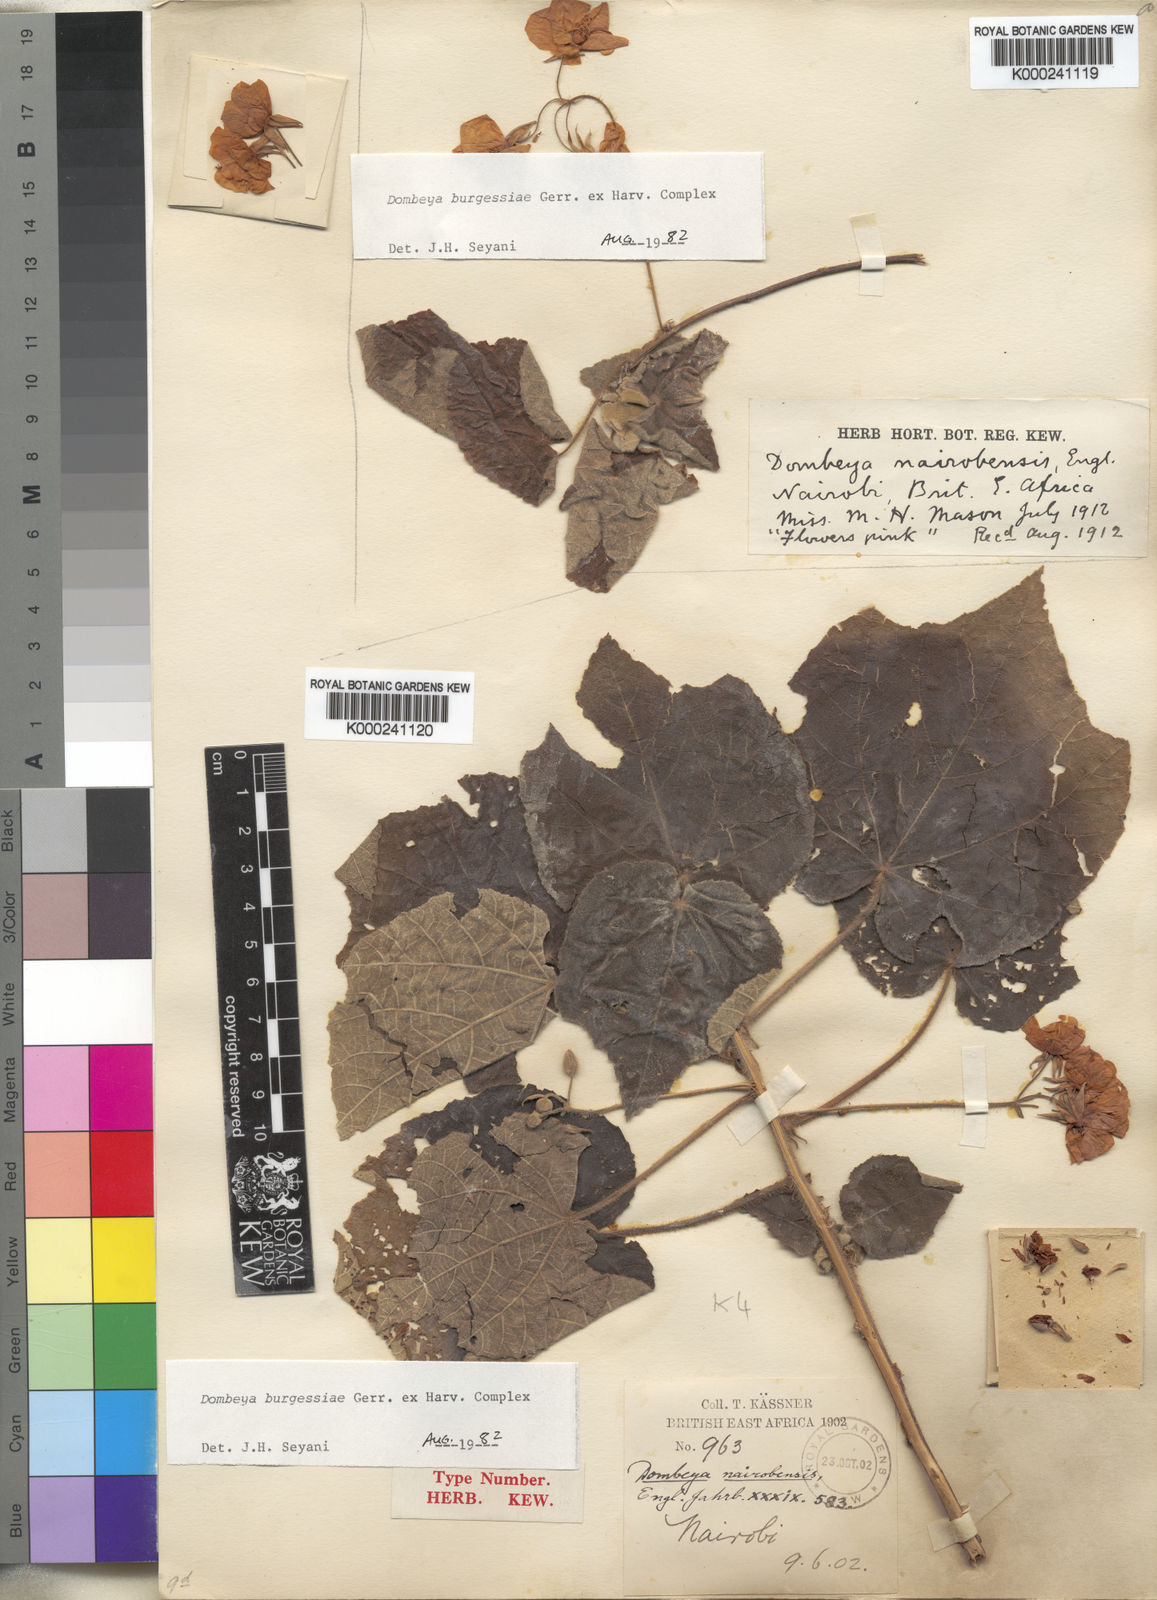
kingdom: Plantae
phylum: Tracheophyta
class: Magnoliopsida
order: Malvales
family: Malvaceae
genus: Dombeya
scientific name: Dombeya burgessiae
